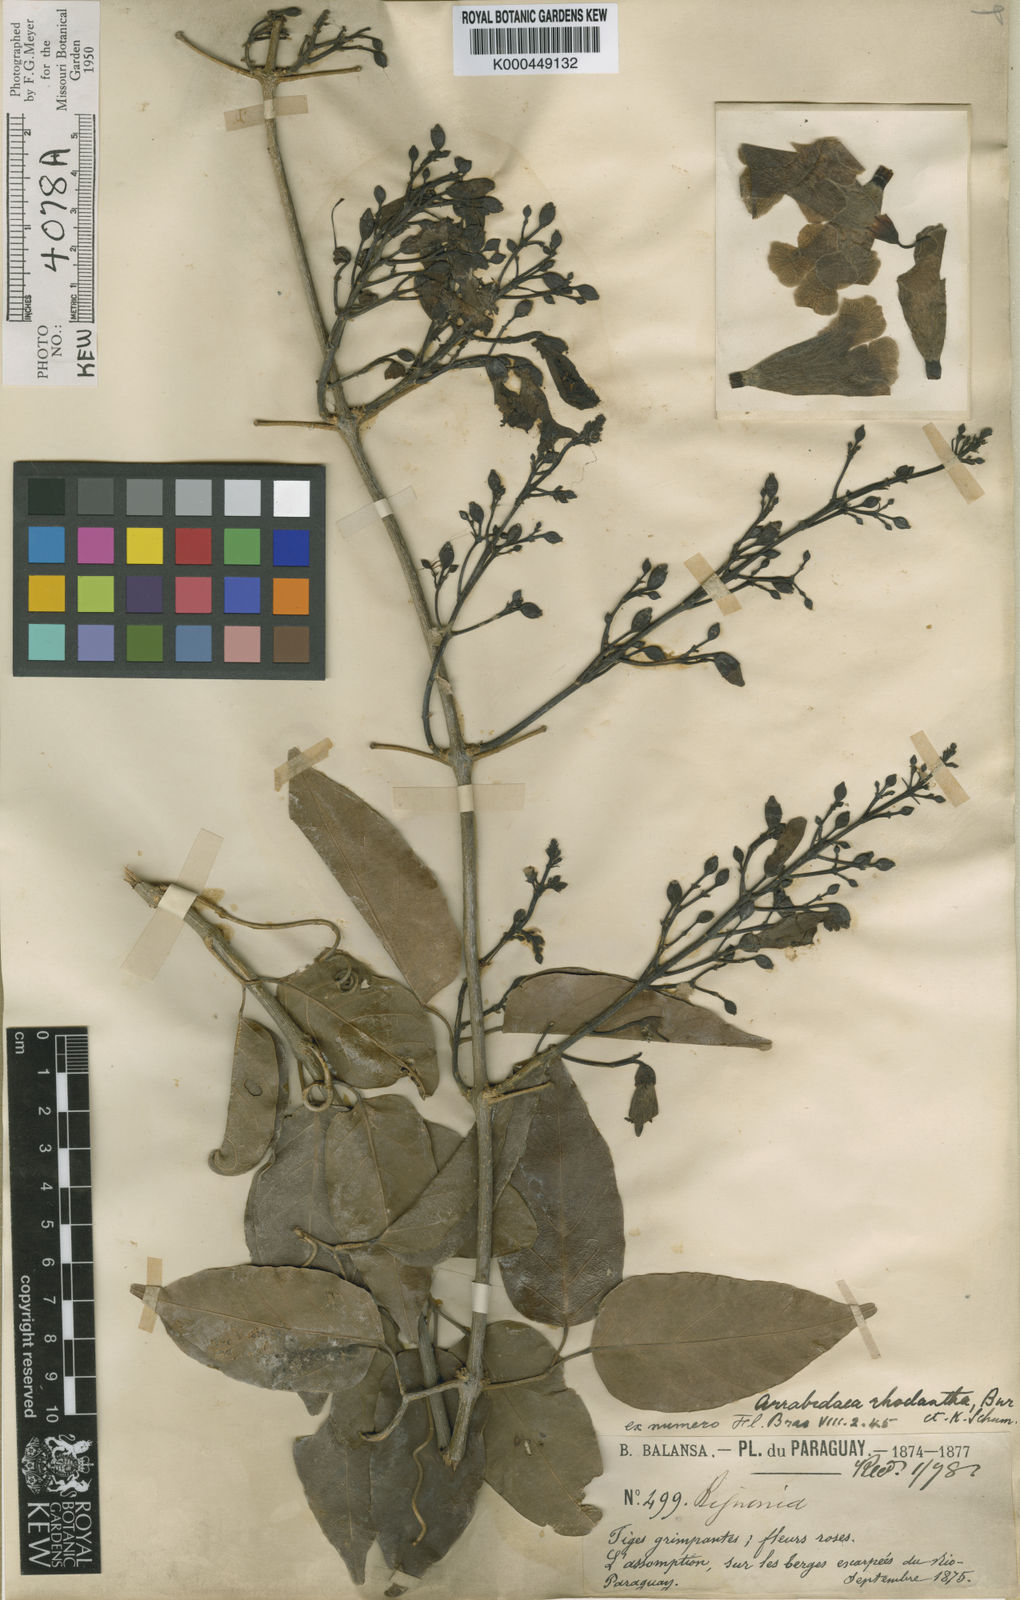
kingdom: Plantae
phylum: Tracheophyta
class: Magnoliopsida
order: Lamiales
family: Bignoniaceae
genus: Tanaecium
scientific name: Tanaecium dichotomum
